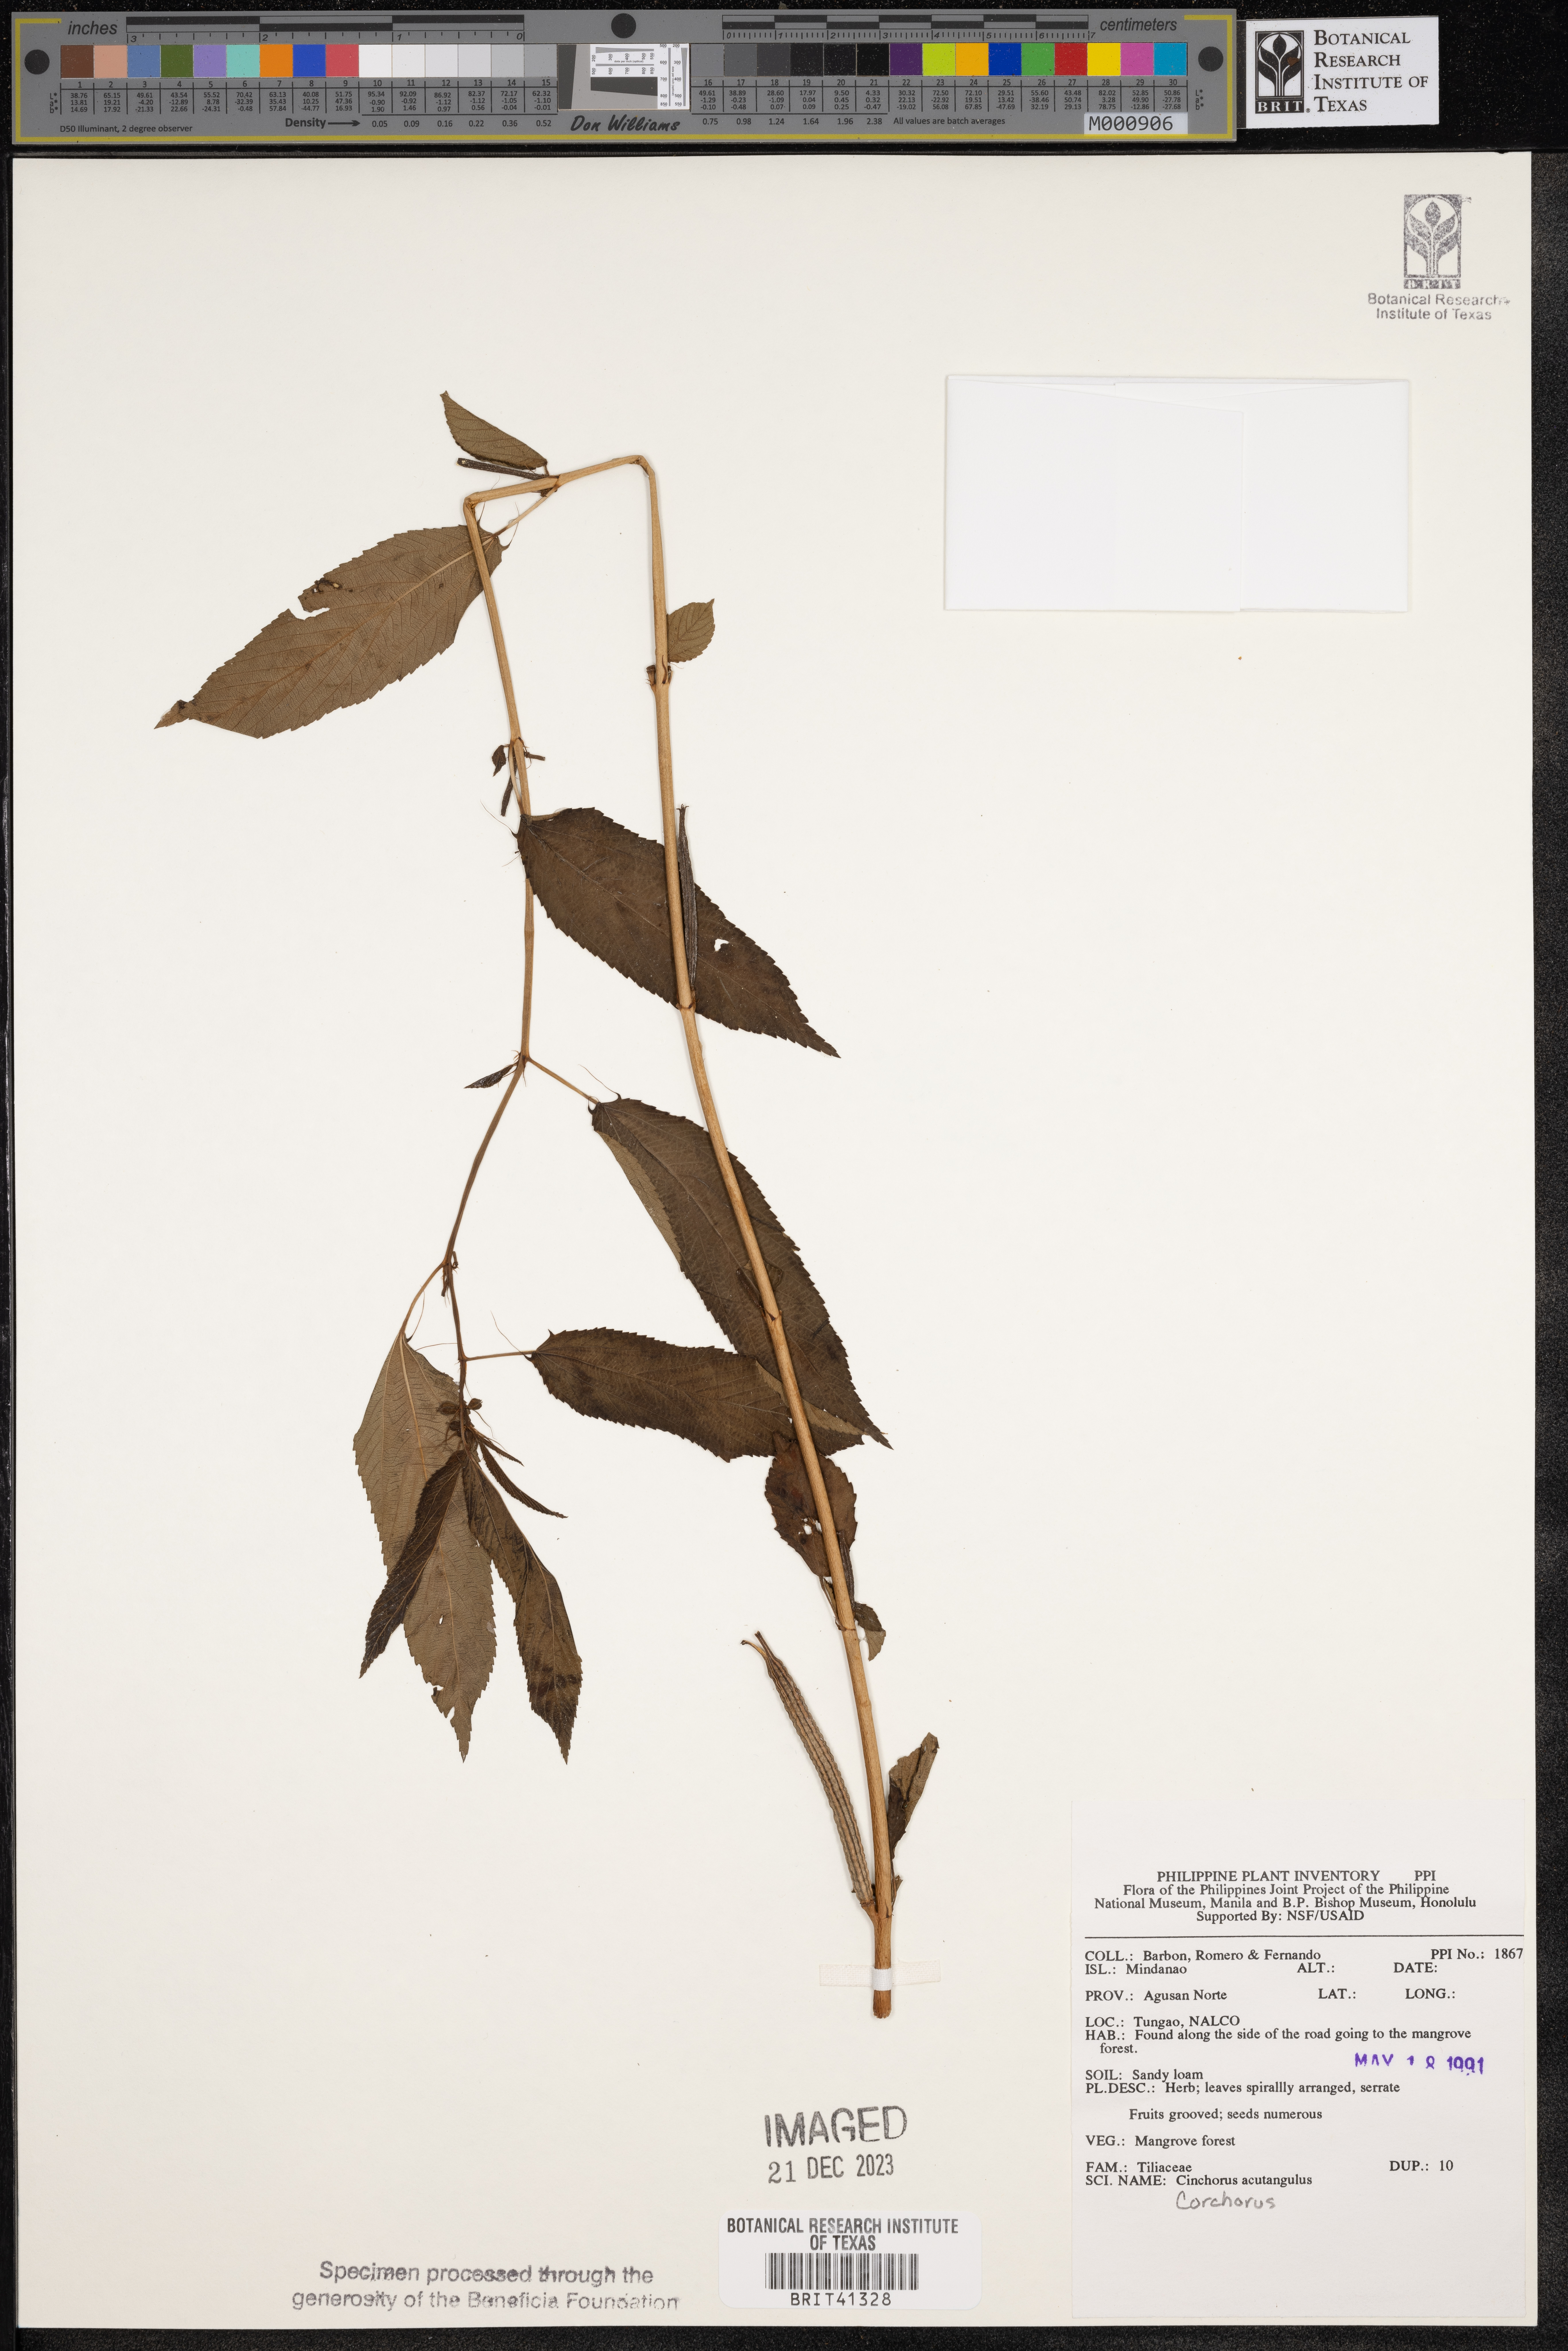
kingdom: Plantae
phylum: Tracheophyta
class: Magnoliopsida
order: Malvales
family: Malvaceae
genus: Corchorus
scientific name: Corchorus aestuans
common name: Jute
